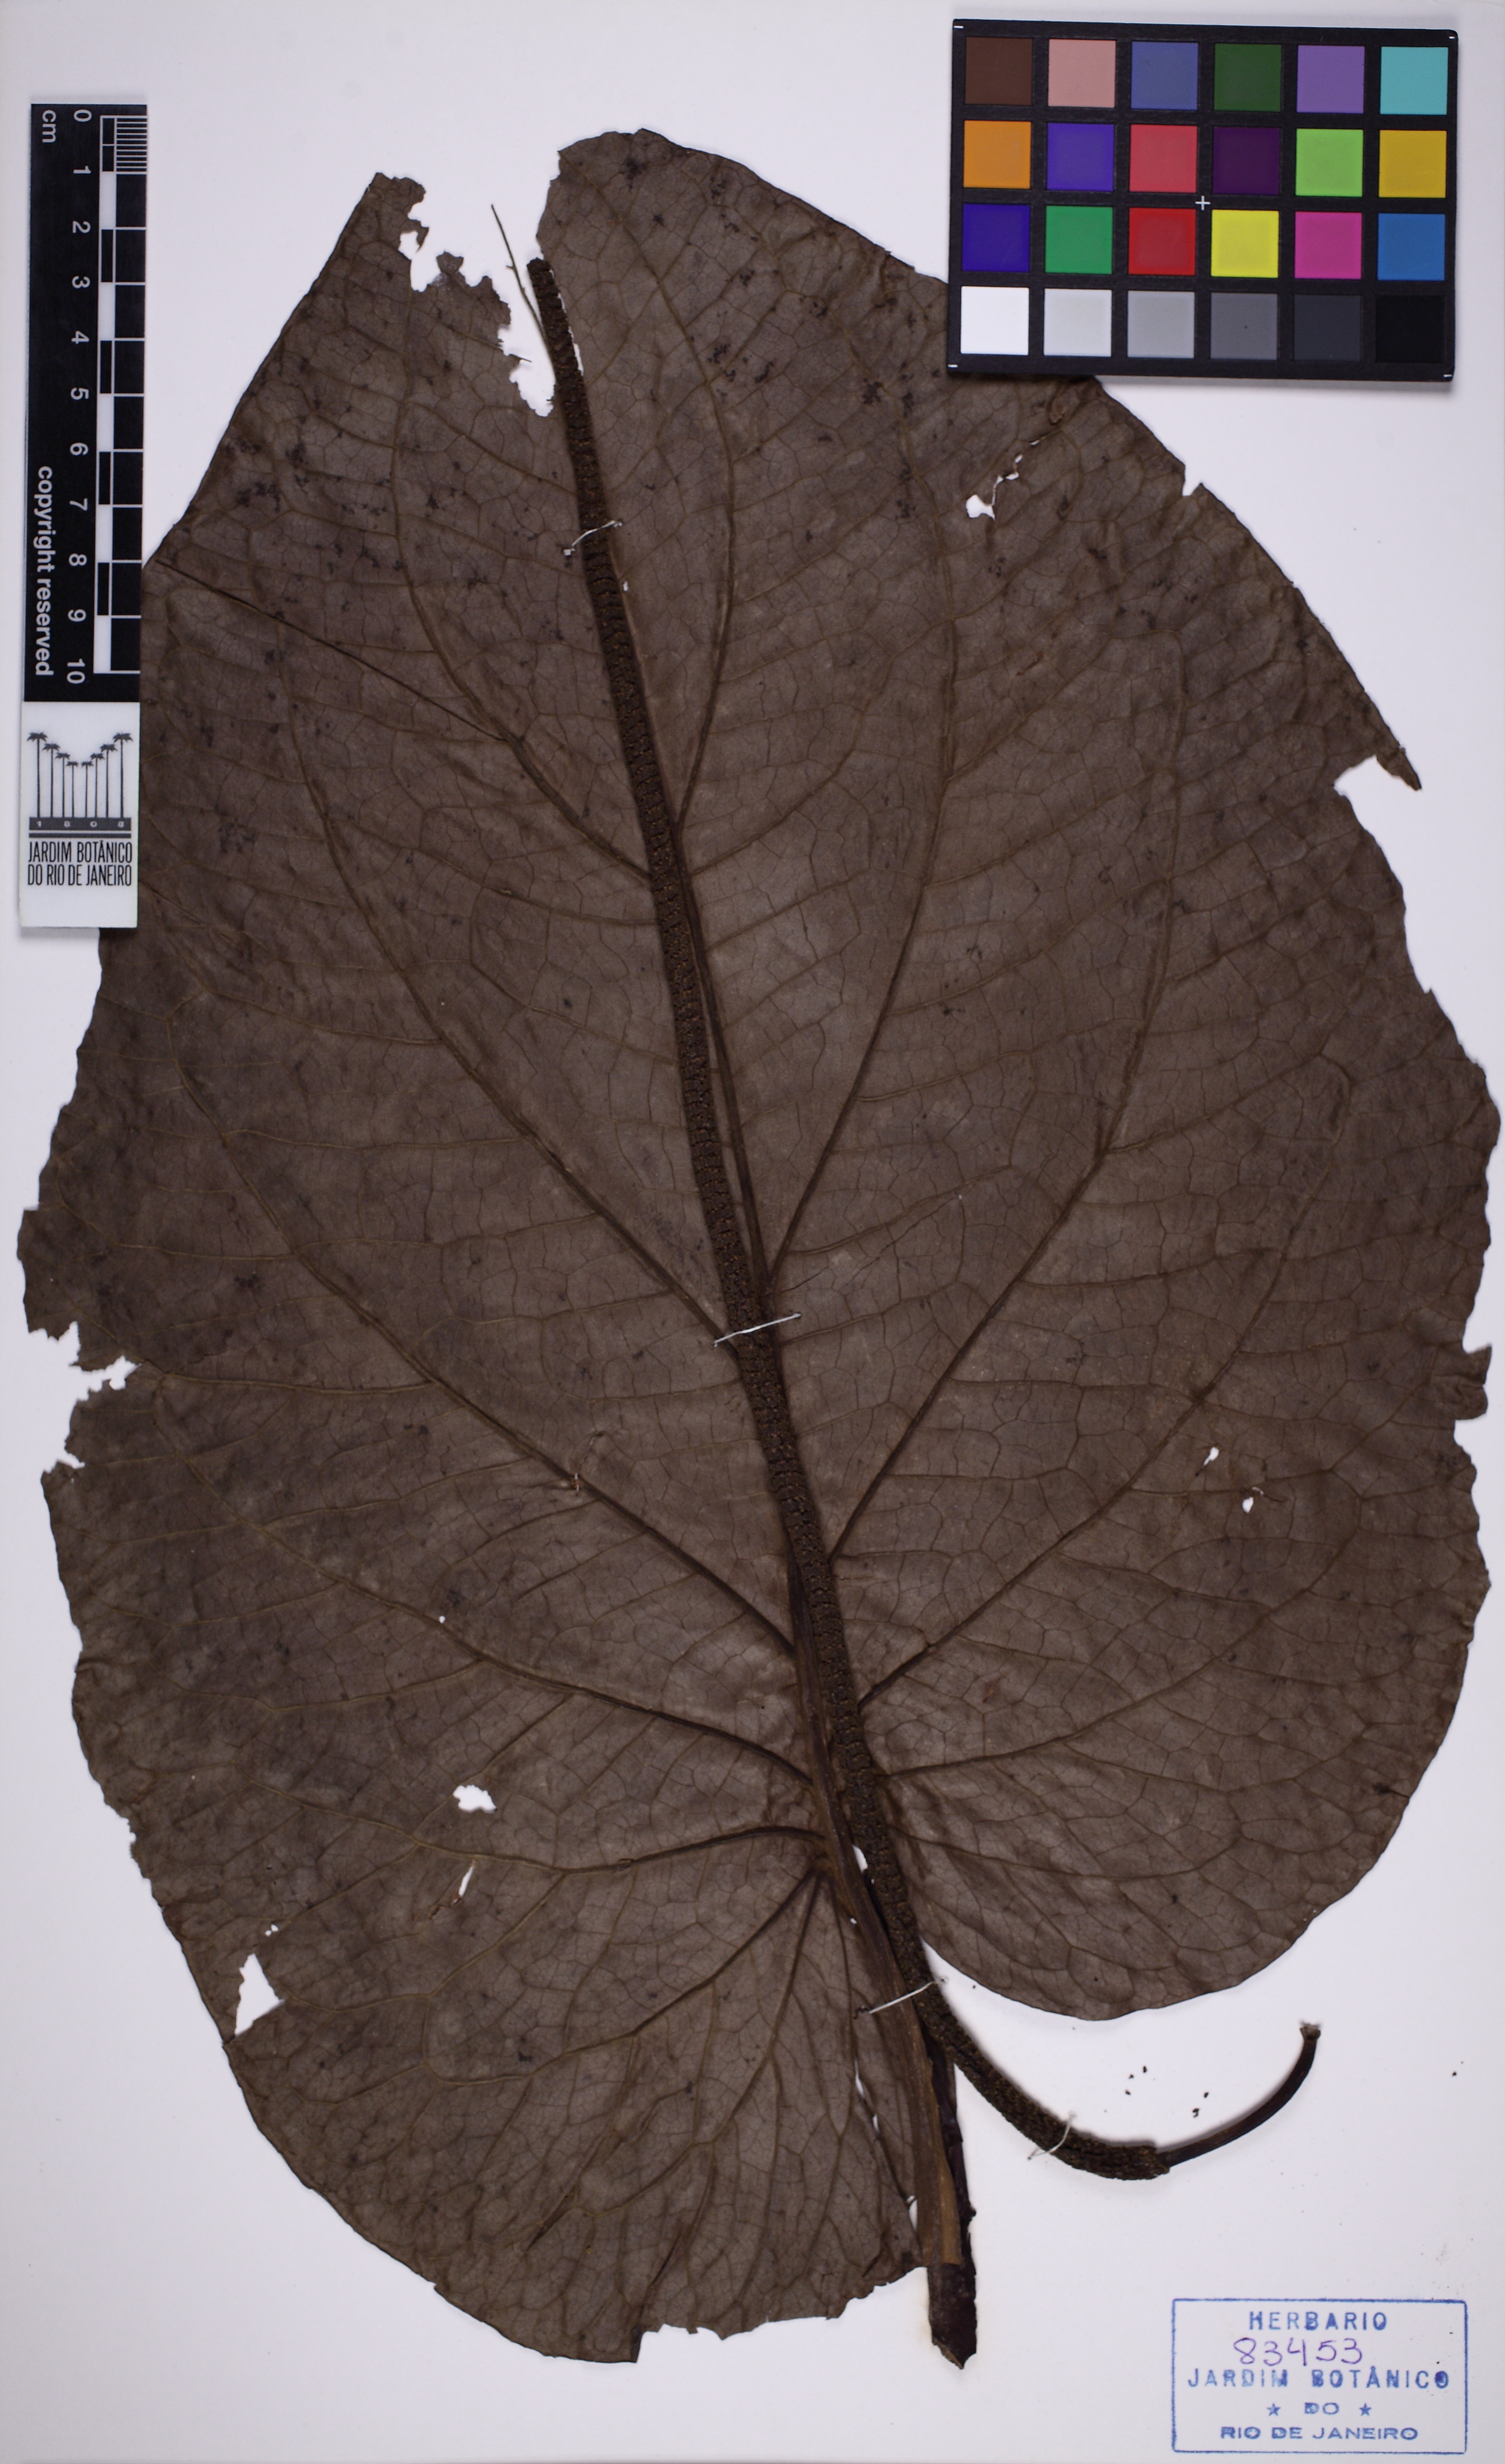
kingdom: Plantae
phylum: Tracheophyta
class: Magnoliopsida
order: Piperales
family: Piperaceae
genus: Piper
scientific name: Piper cernuum
